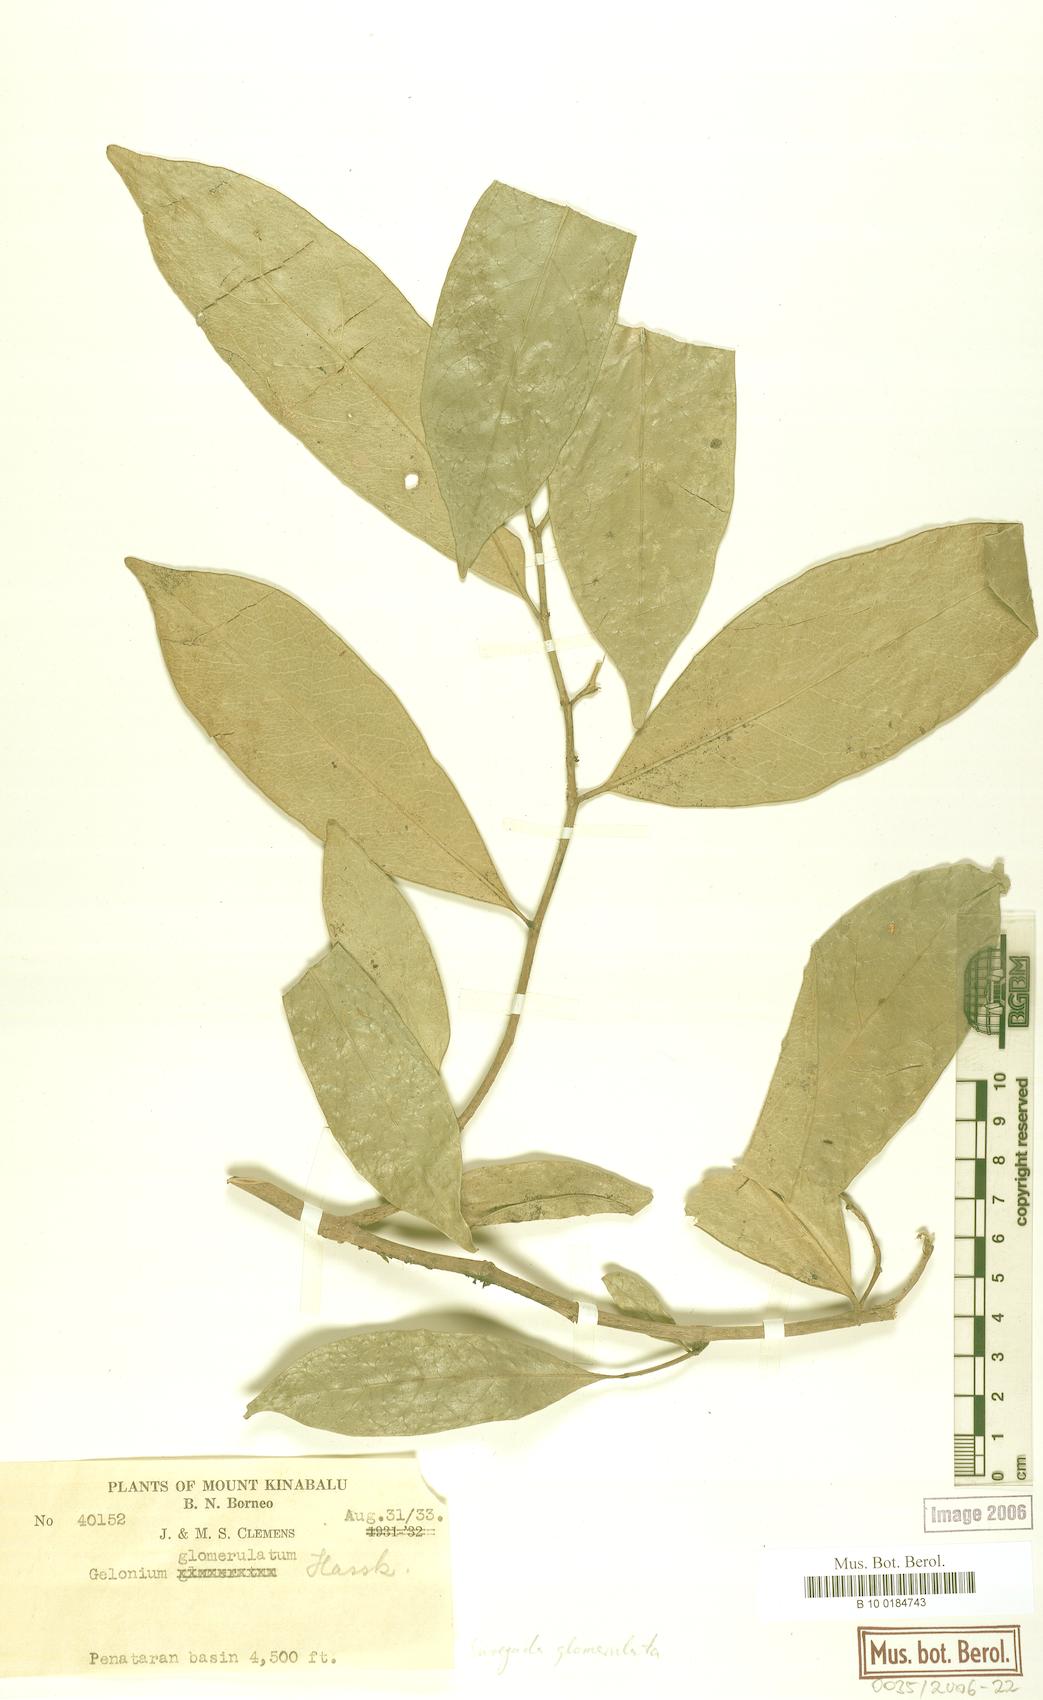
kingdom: Plantae
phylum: Tracheophyta
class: Magnoliopsida
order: Malpighiales
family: Euphorbiaceae
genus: Suregada
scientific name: Suregada glomerulata
